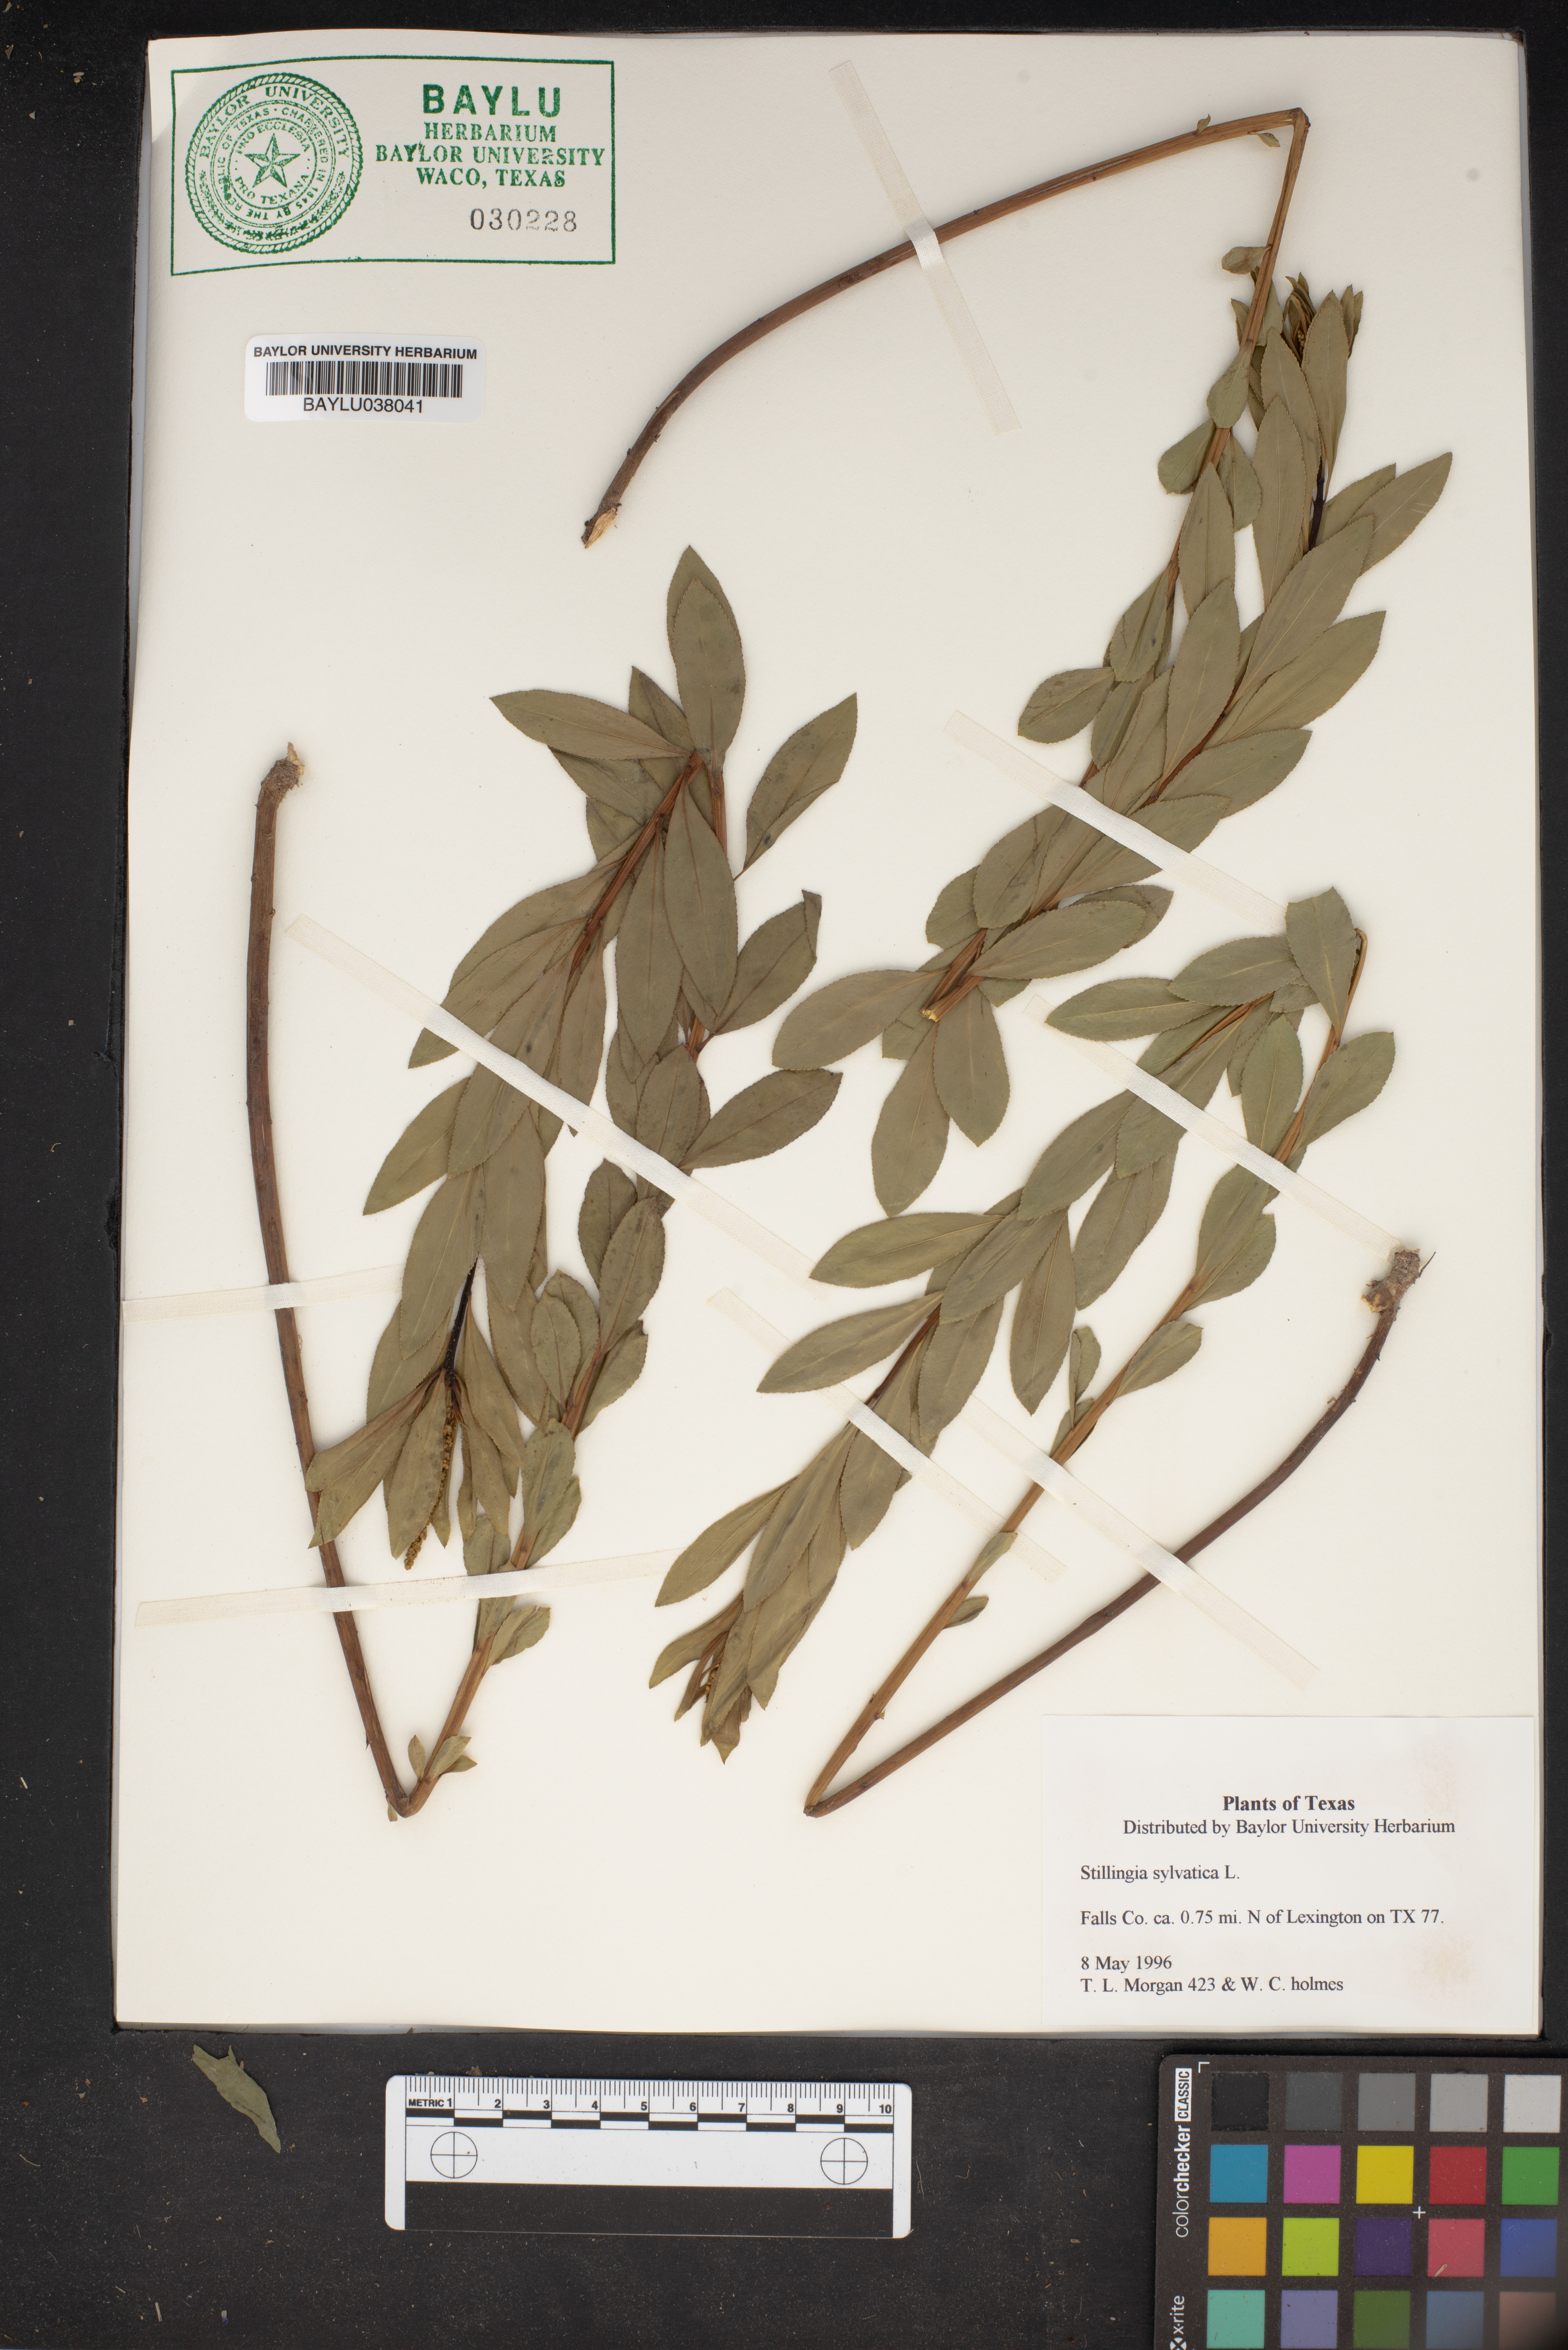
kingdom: Plantae
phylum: Tracheophyta
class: Magnoliopsida
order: Malpighiales
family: Euphorbiaceae
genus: Stillingia
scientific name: Stillingia sylvatica
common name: Queen's-delight
